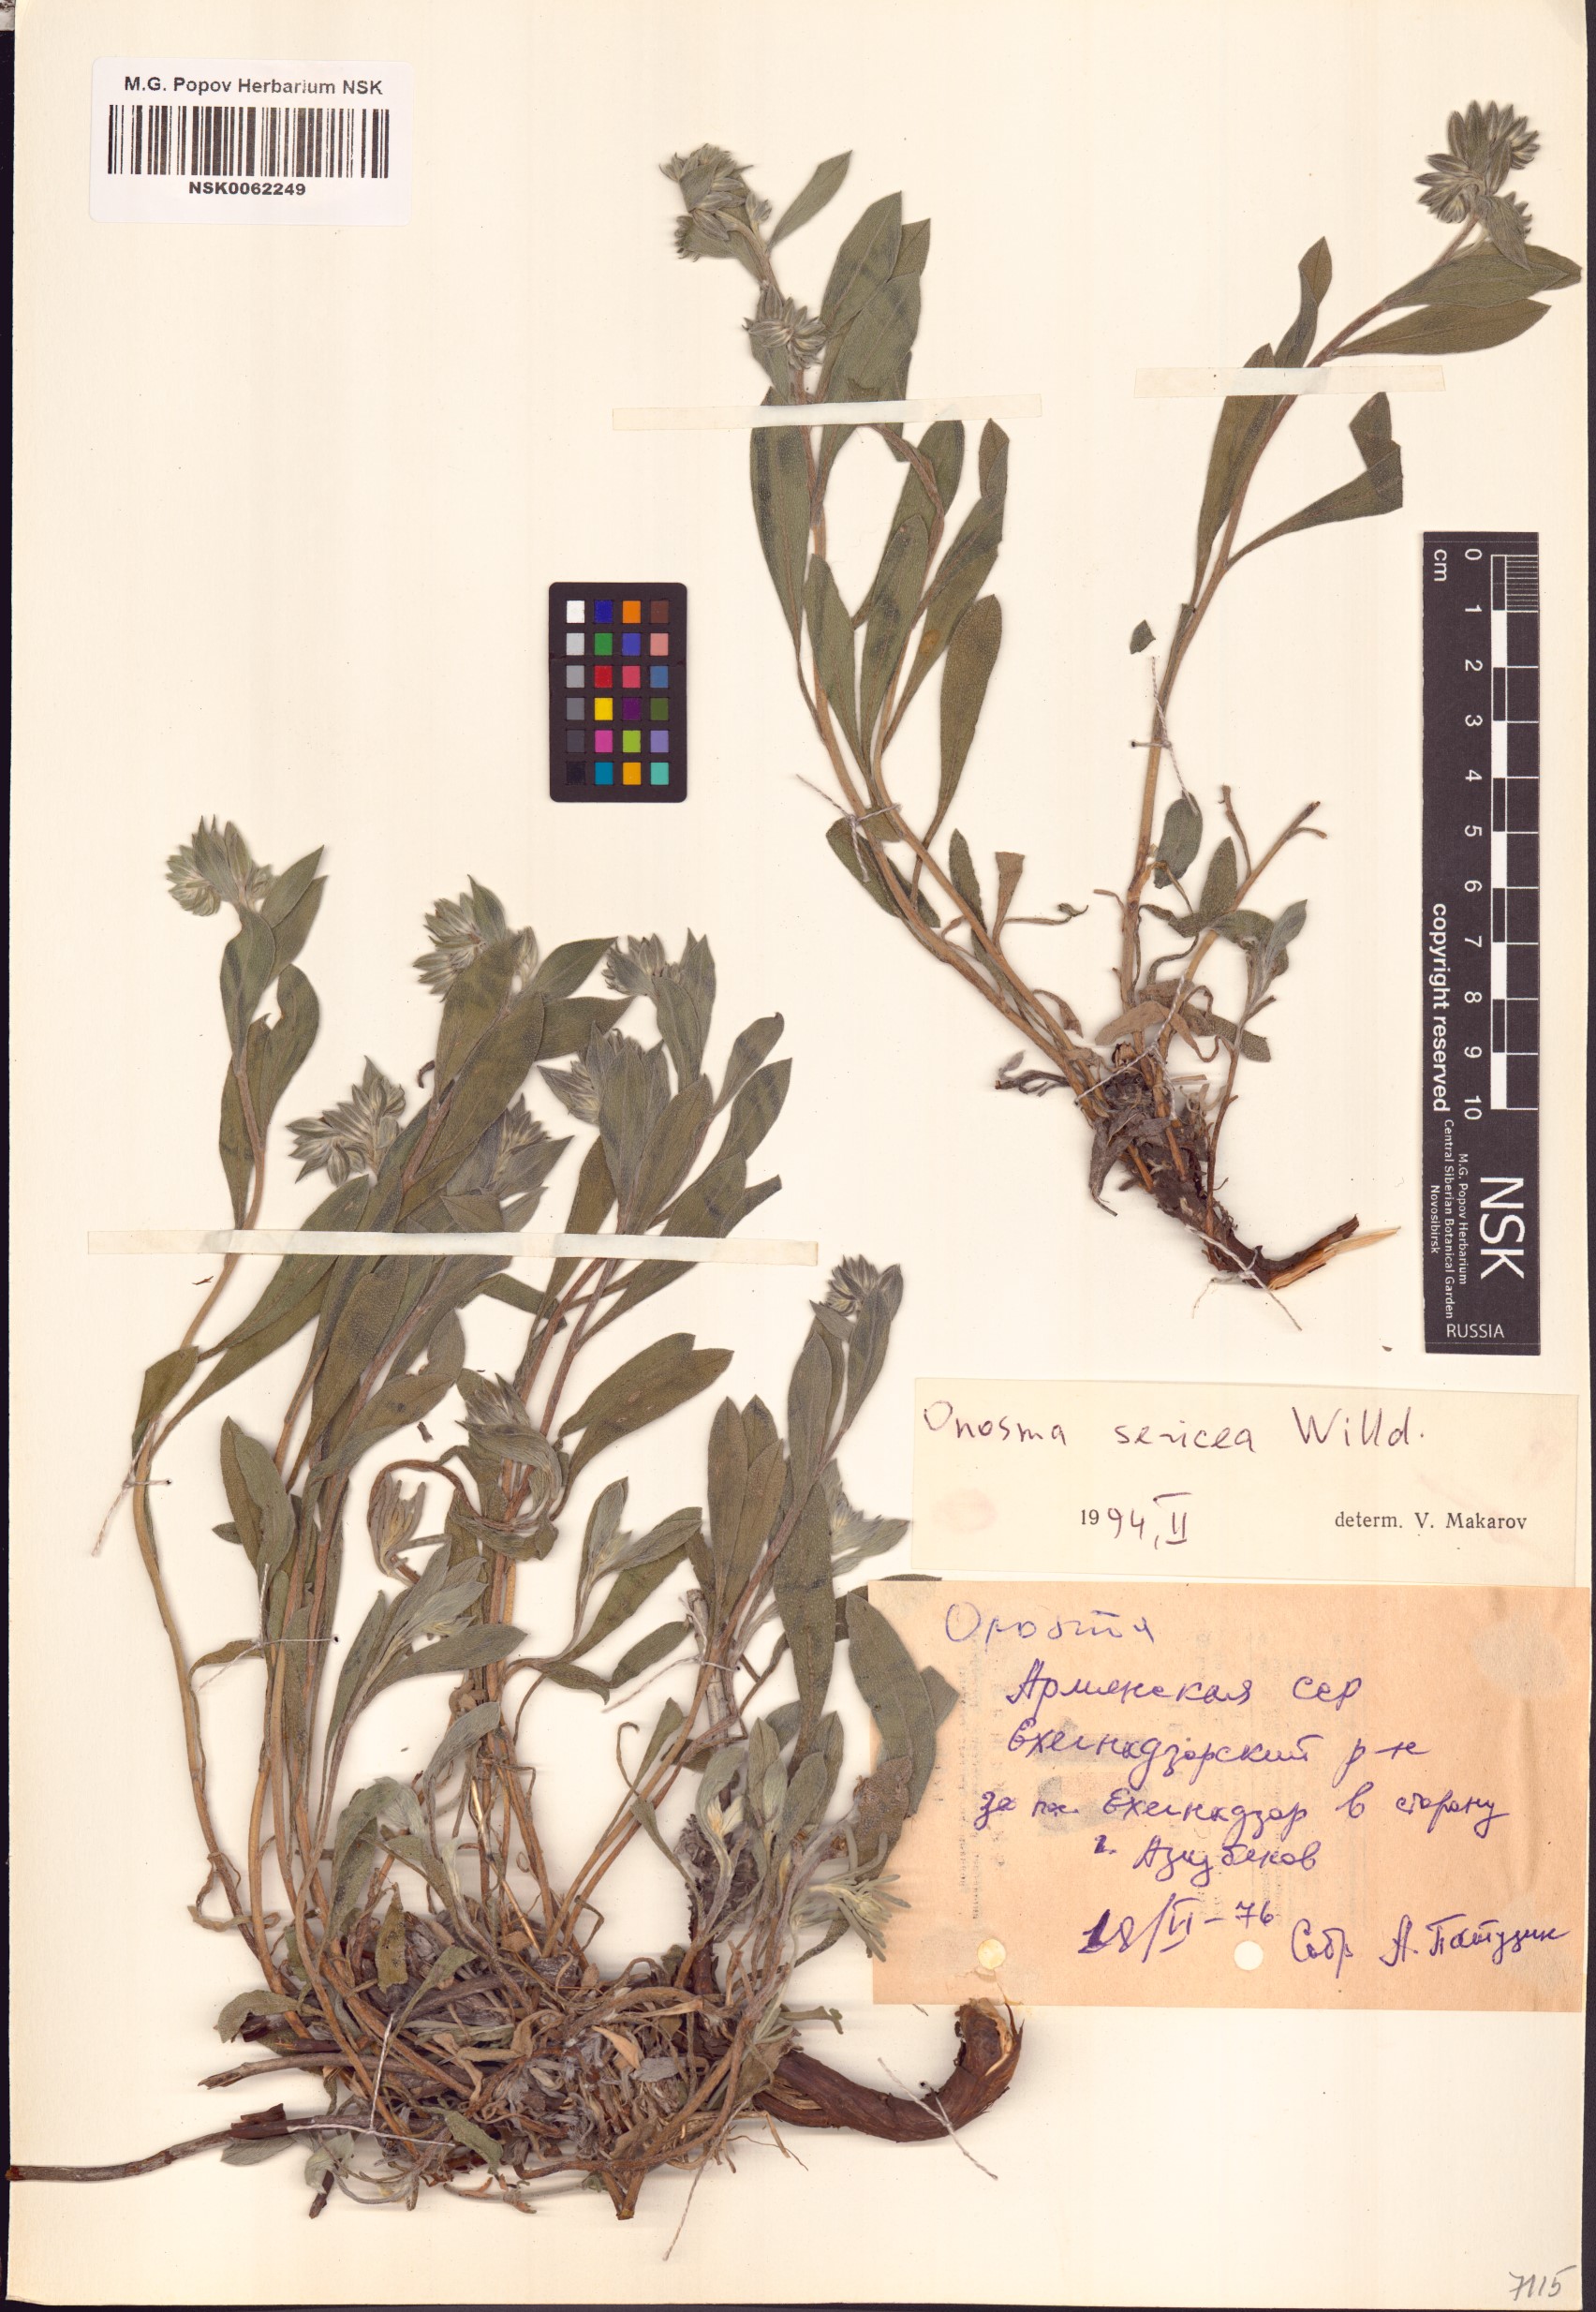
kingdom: Plantae
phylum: Tracheophyta
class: Magnoliopsida
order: Boraginales
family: Boraginaceae
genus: Onosma
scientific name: Onosma sericea
